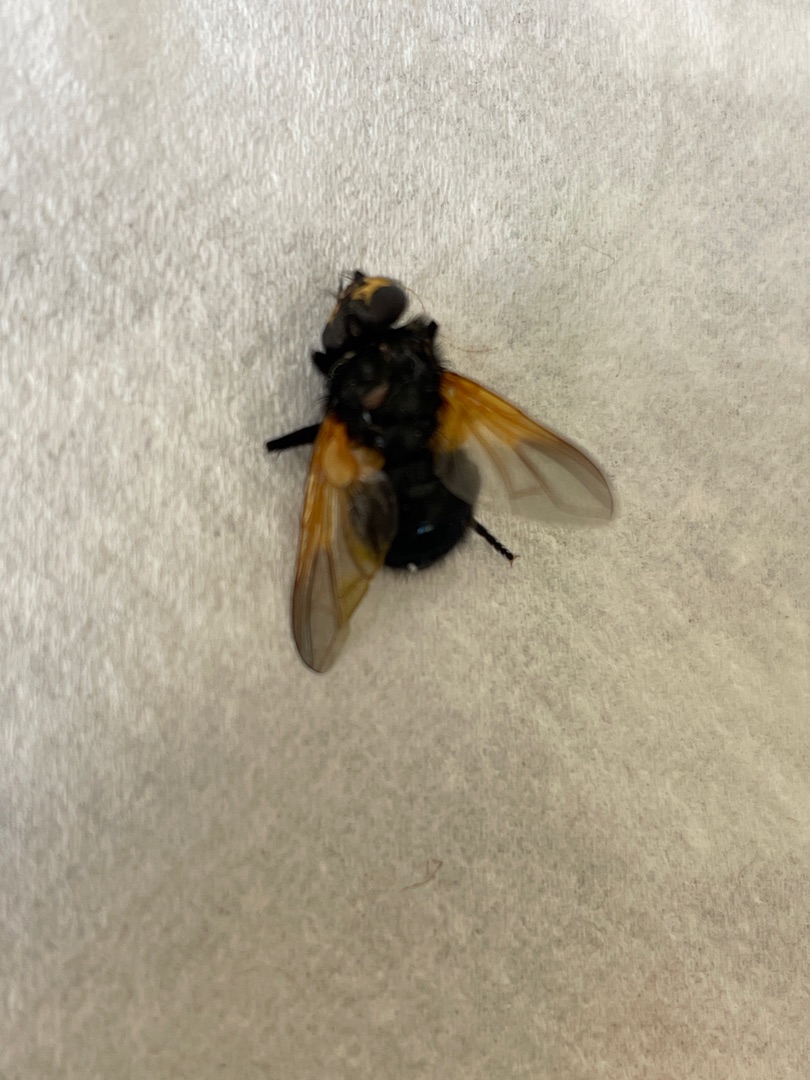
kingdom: Animalia
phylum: Arthropoda
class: Insecta
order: Diptera
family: Muscidae
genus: Mesembrina
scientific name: Mesembrina meridiana
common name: Gulvinget flue
